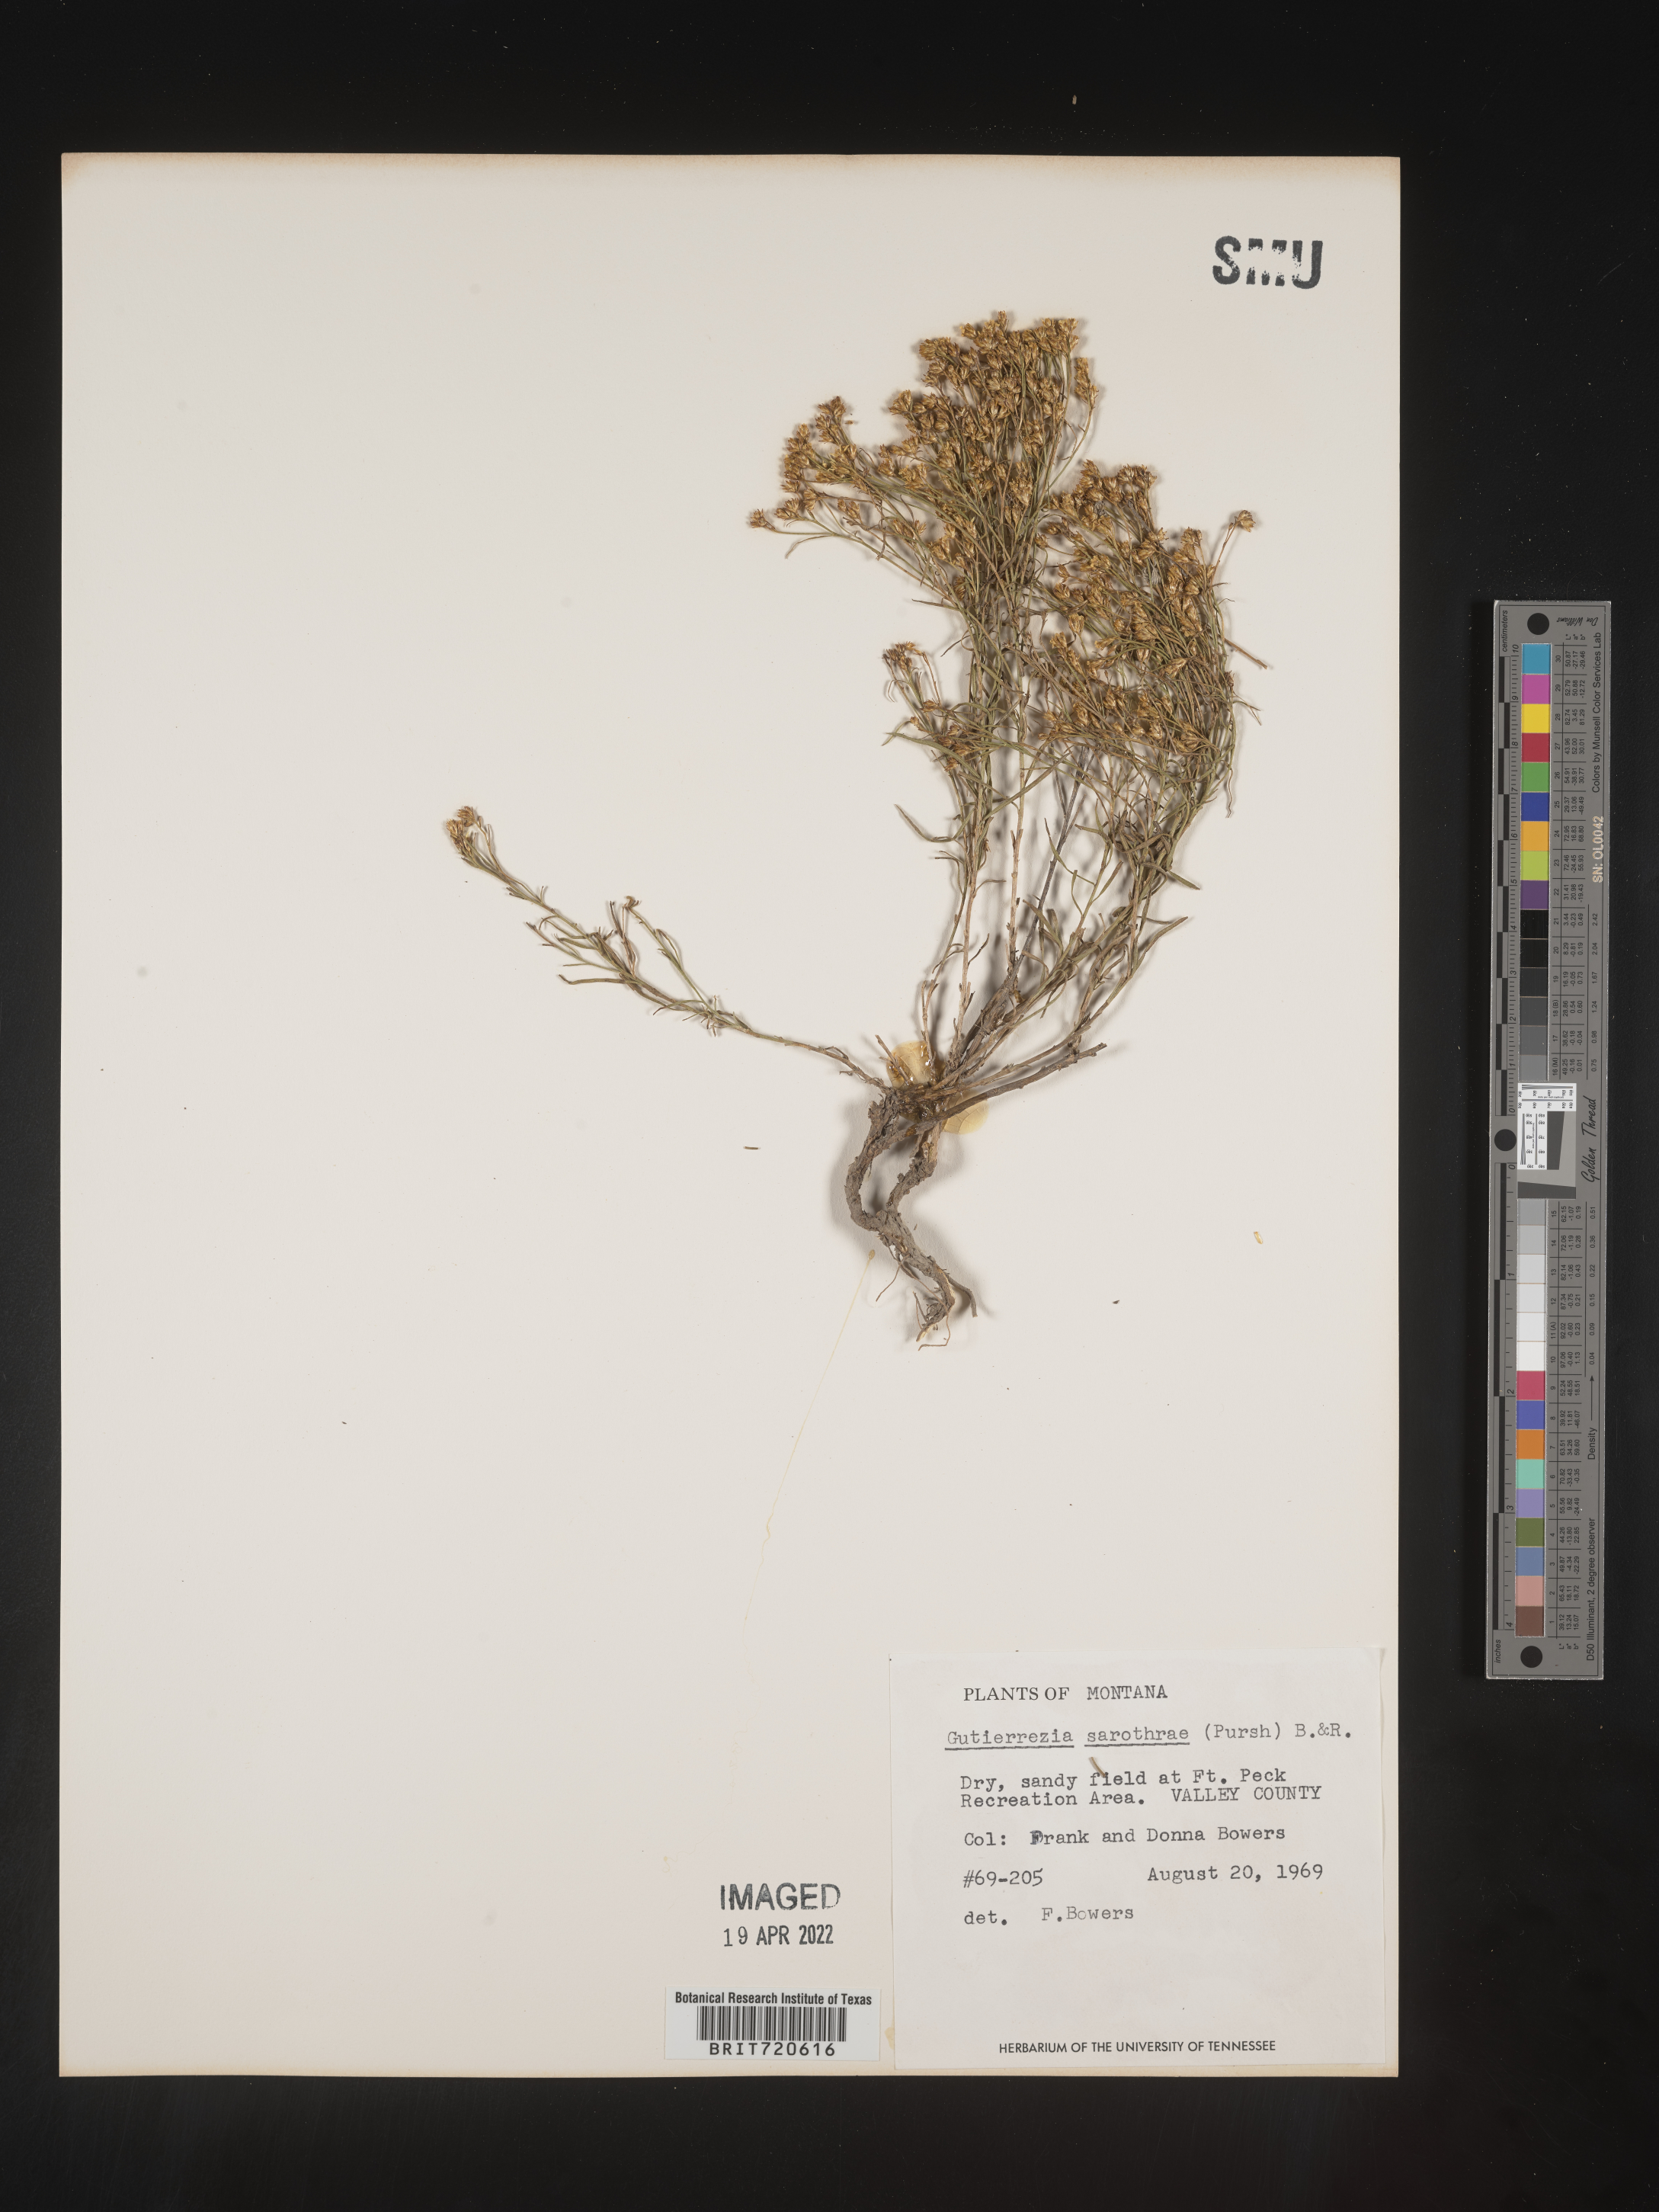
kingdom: Plantae
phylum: Tracheophyta
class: Magnoliopsida
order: Asterales
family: Asteraceae
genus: Gutierrezia
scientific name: Gutierrezia sarothrae
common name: Broom snakeweed
